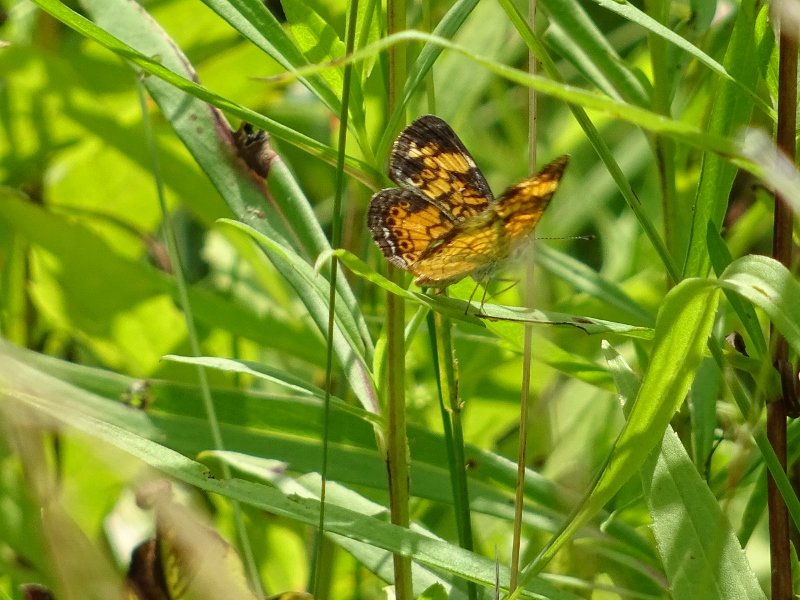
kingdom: Animalia
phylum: Arthropoda
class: Insecta
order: Lepidoptera
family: Nymphalidae
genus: Phyciodes
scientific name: Phyciodes tharos
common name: Pearl Crescent
